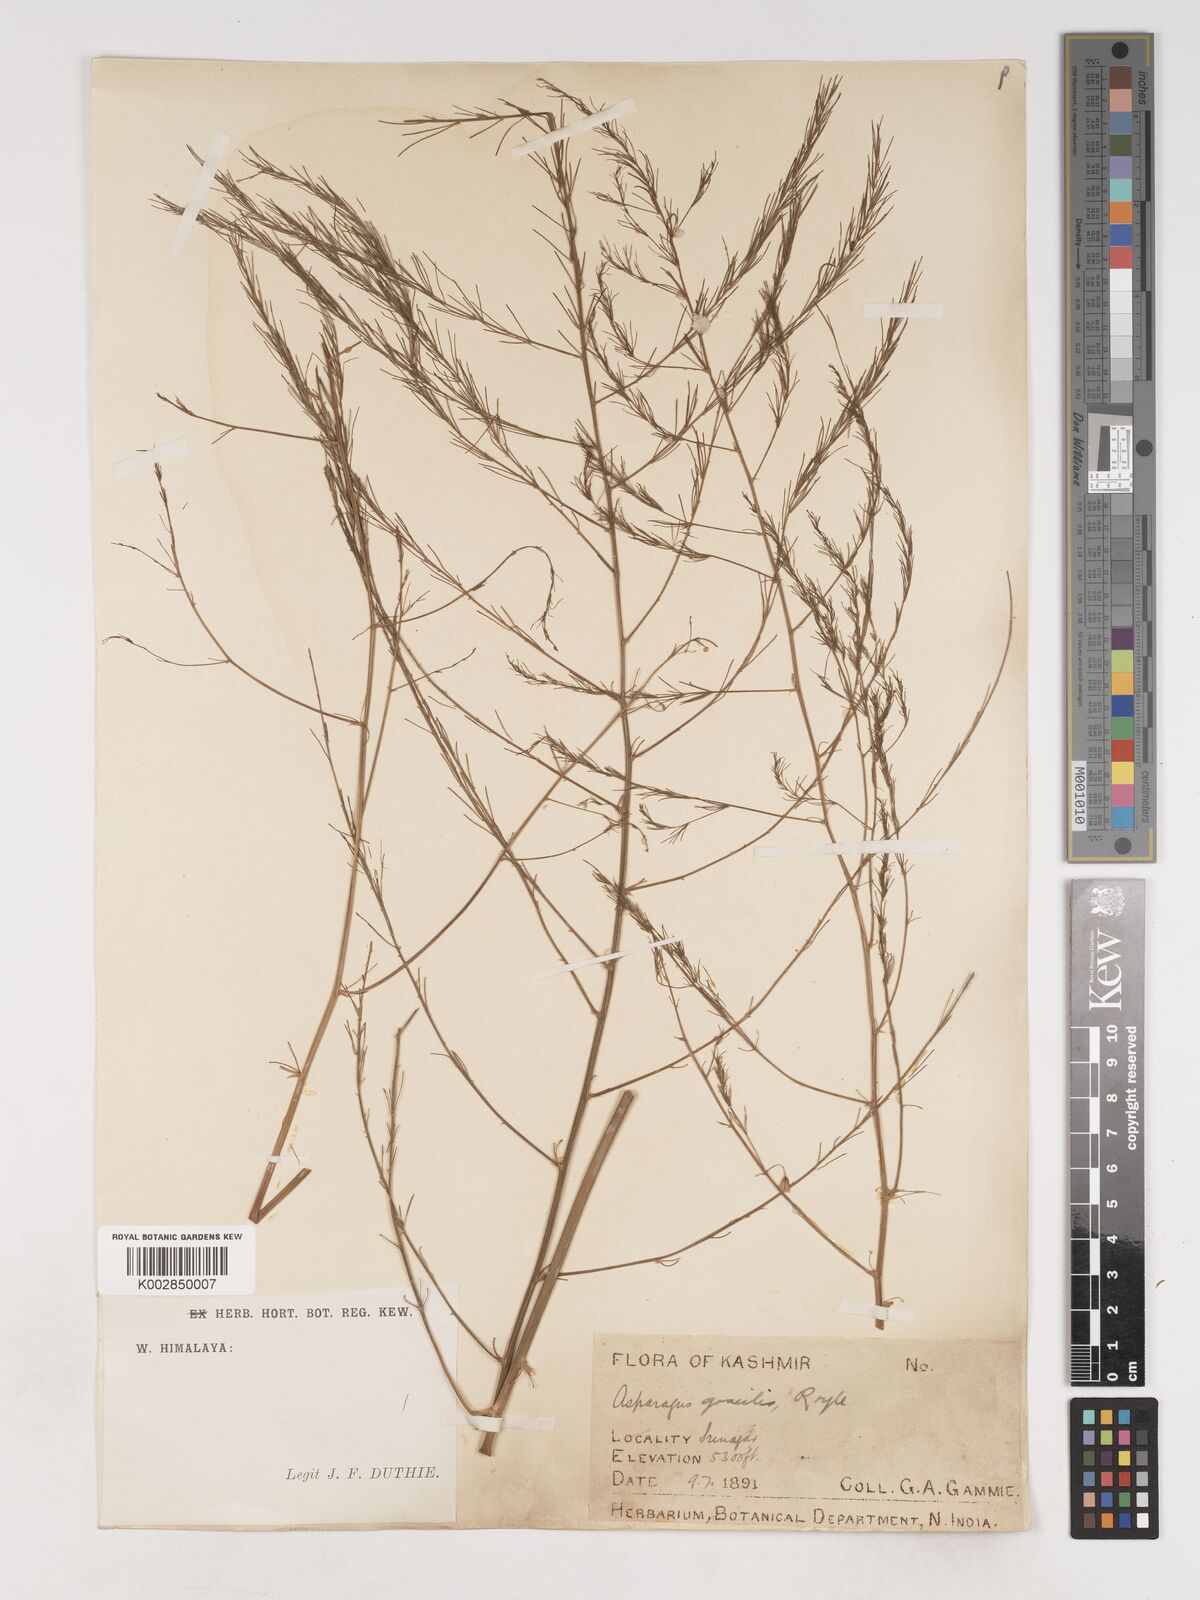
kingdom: Plantae
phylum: Tracheophyta
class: Liliopsida
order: Asparagales
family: Asparagaceae
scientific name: Asparagaceae
